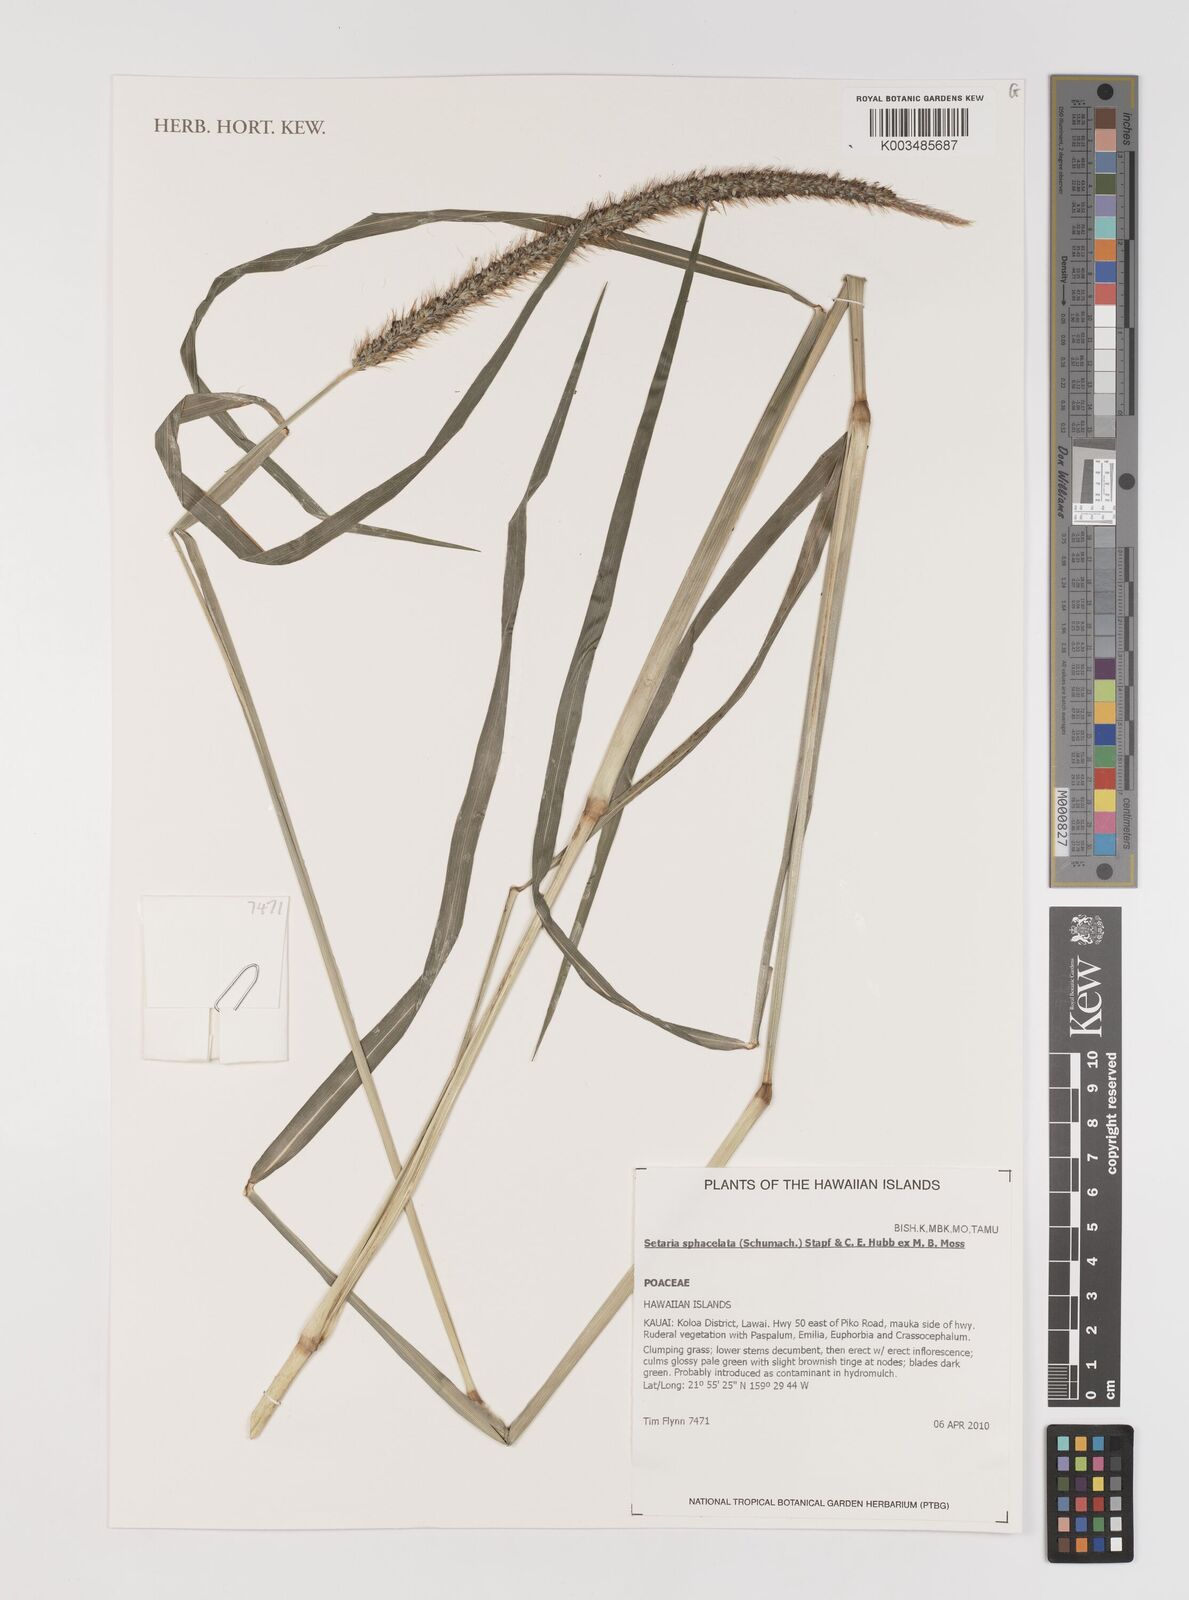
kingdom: Plantae
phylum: Tracheophyta
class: Liliopsida
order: Poales
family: Poaceae
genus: Setaria
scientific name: Setaria sphacelata
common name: African bristlegrass
